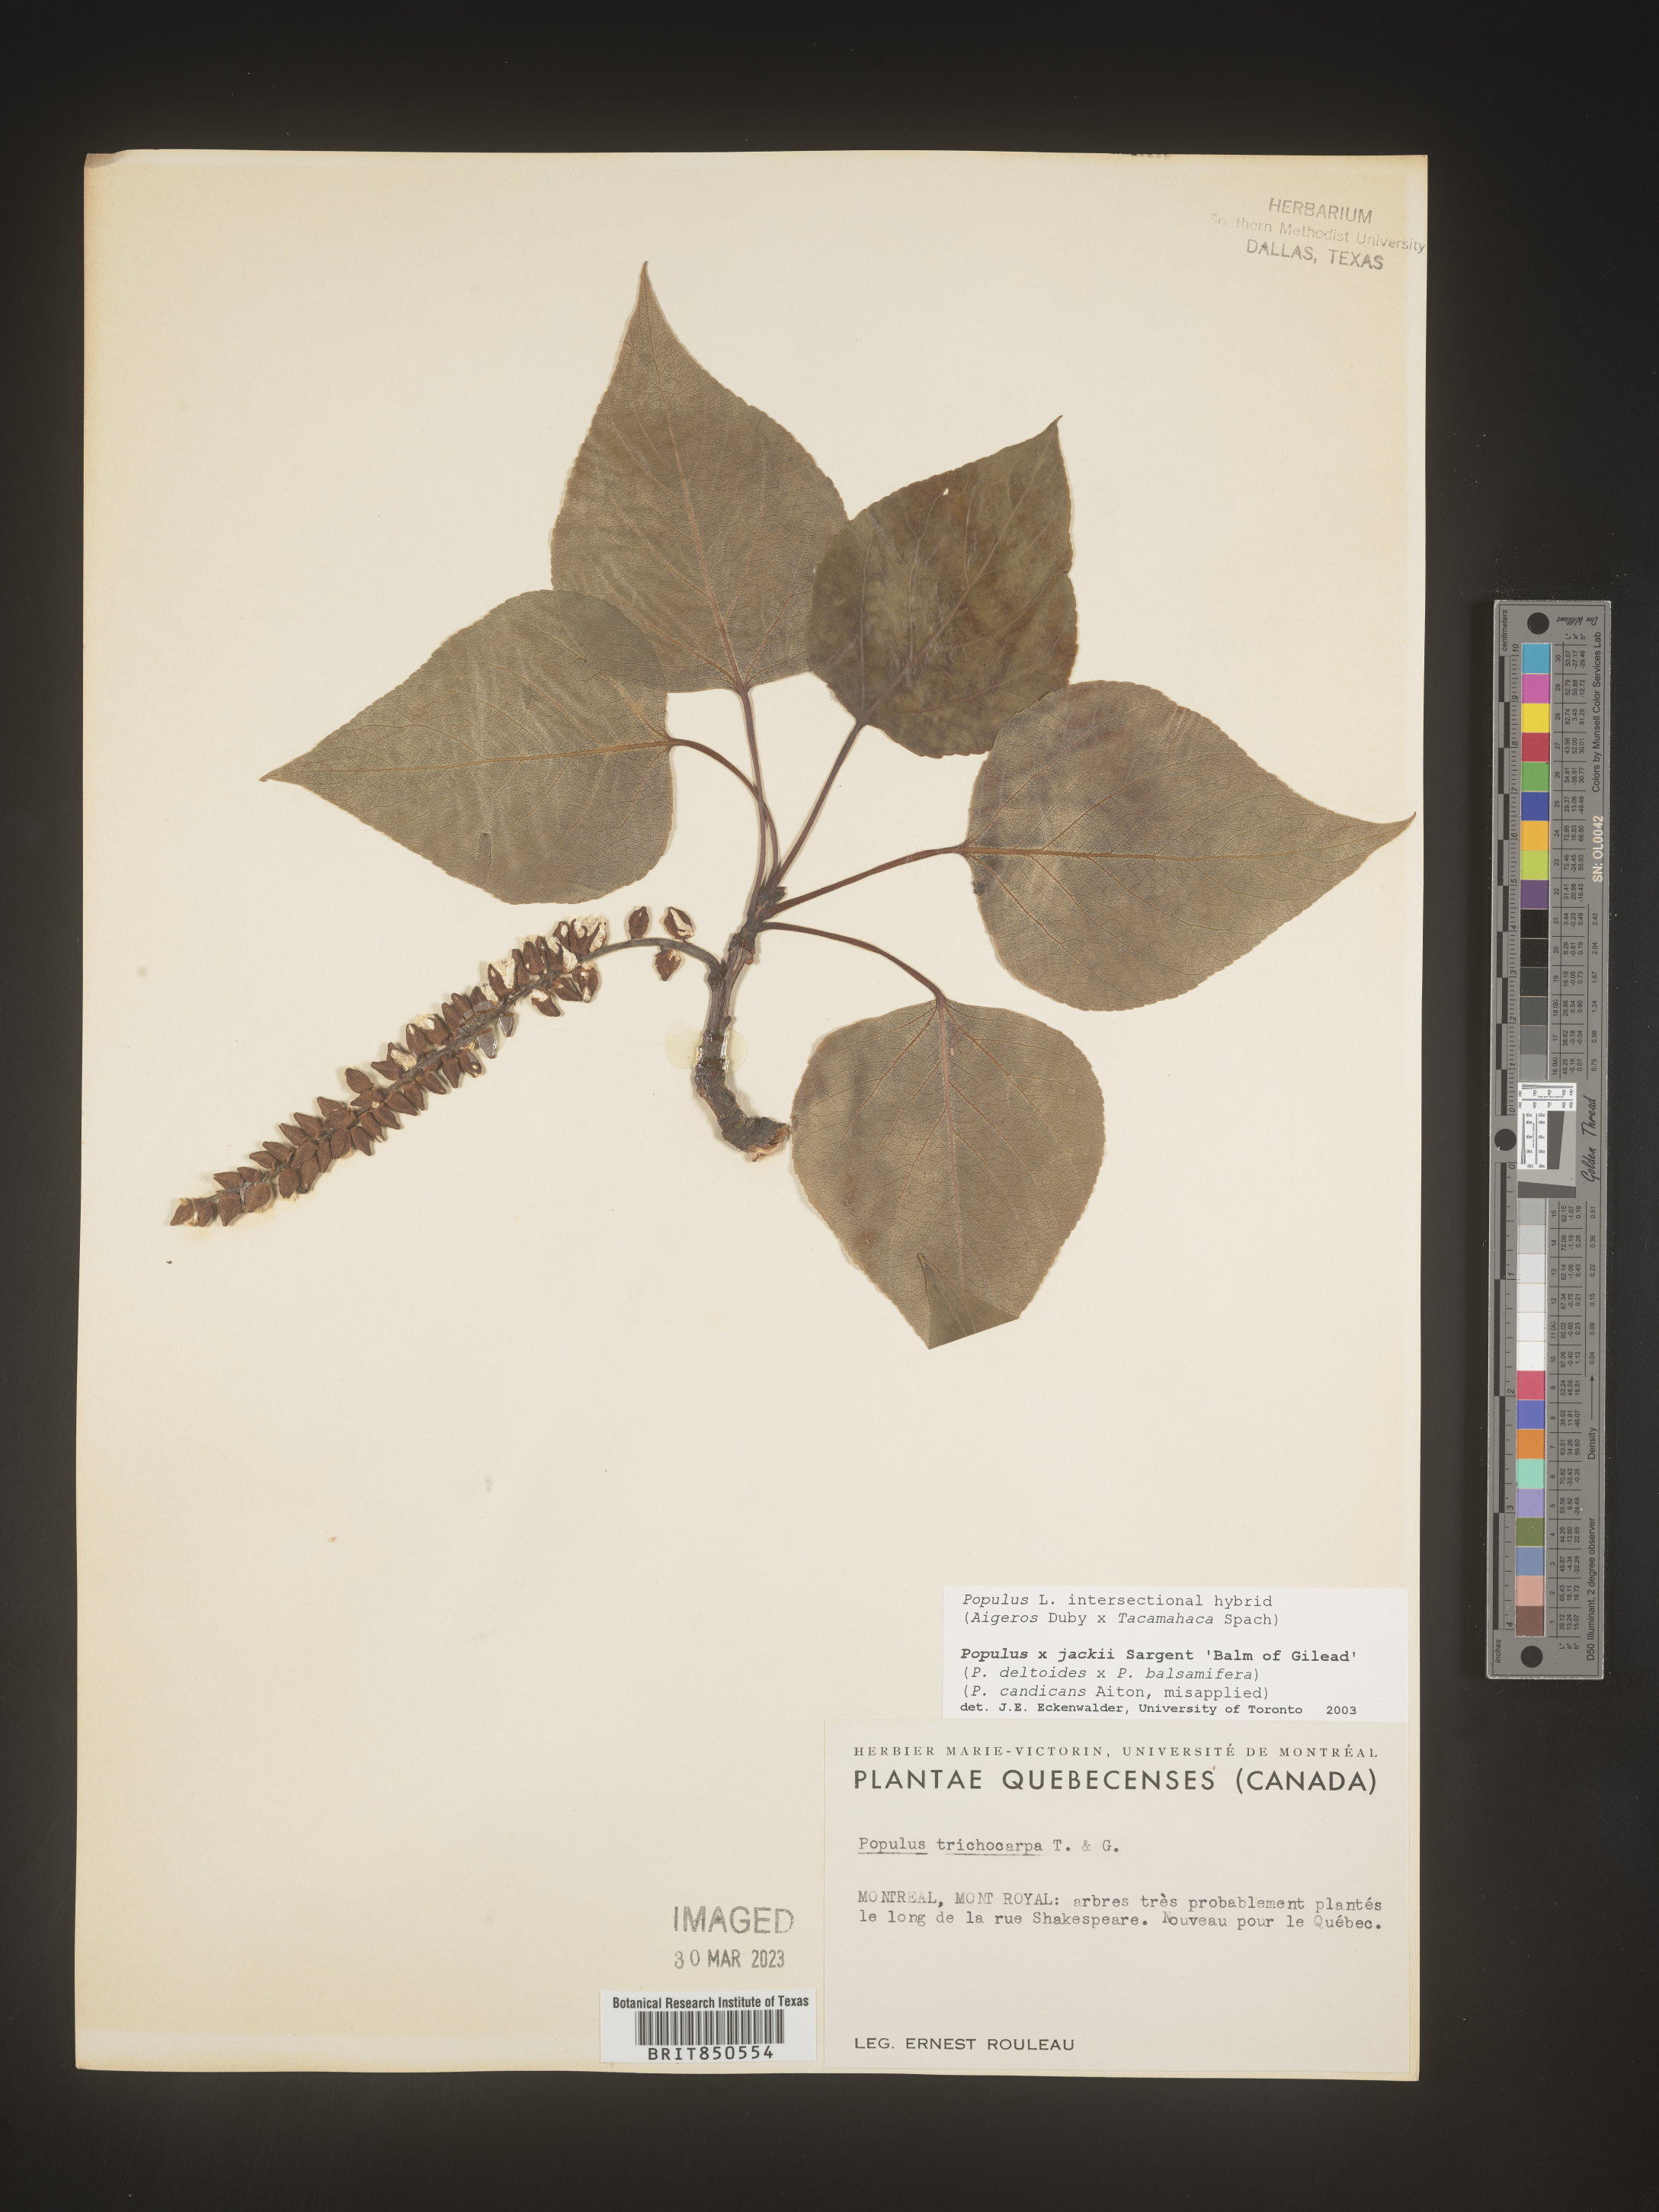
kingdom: Plantae
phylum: Tracheophyta
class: Magnoliopsida
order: Malpighiales
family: Salicaceae
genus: Populus
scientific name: Populus
